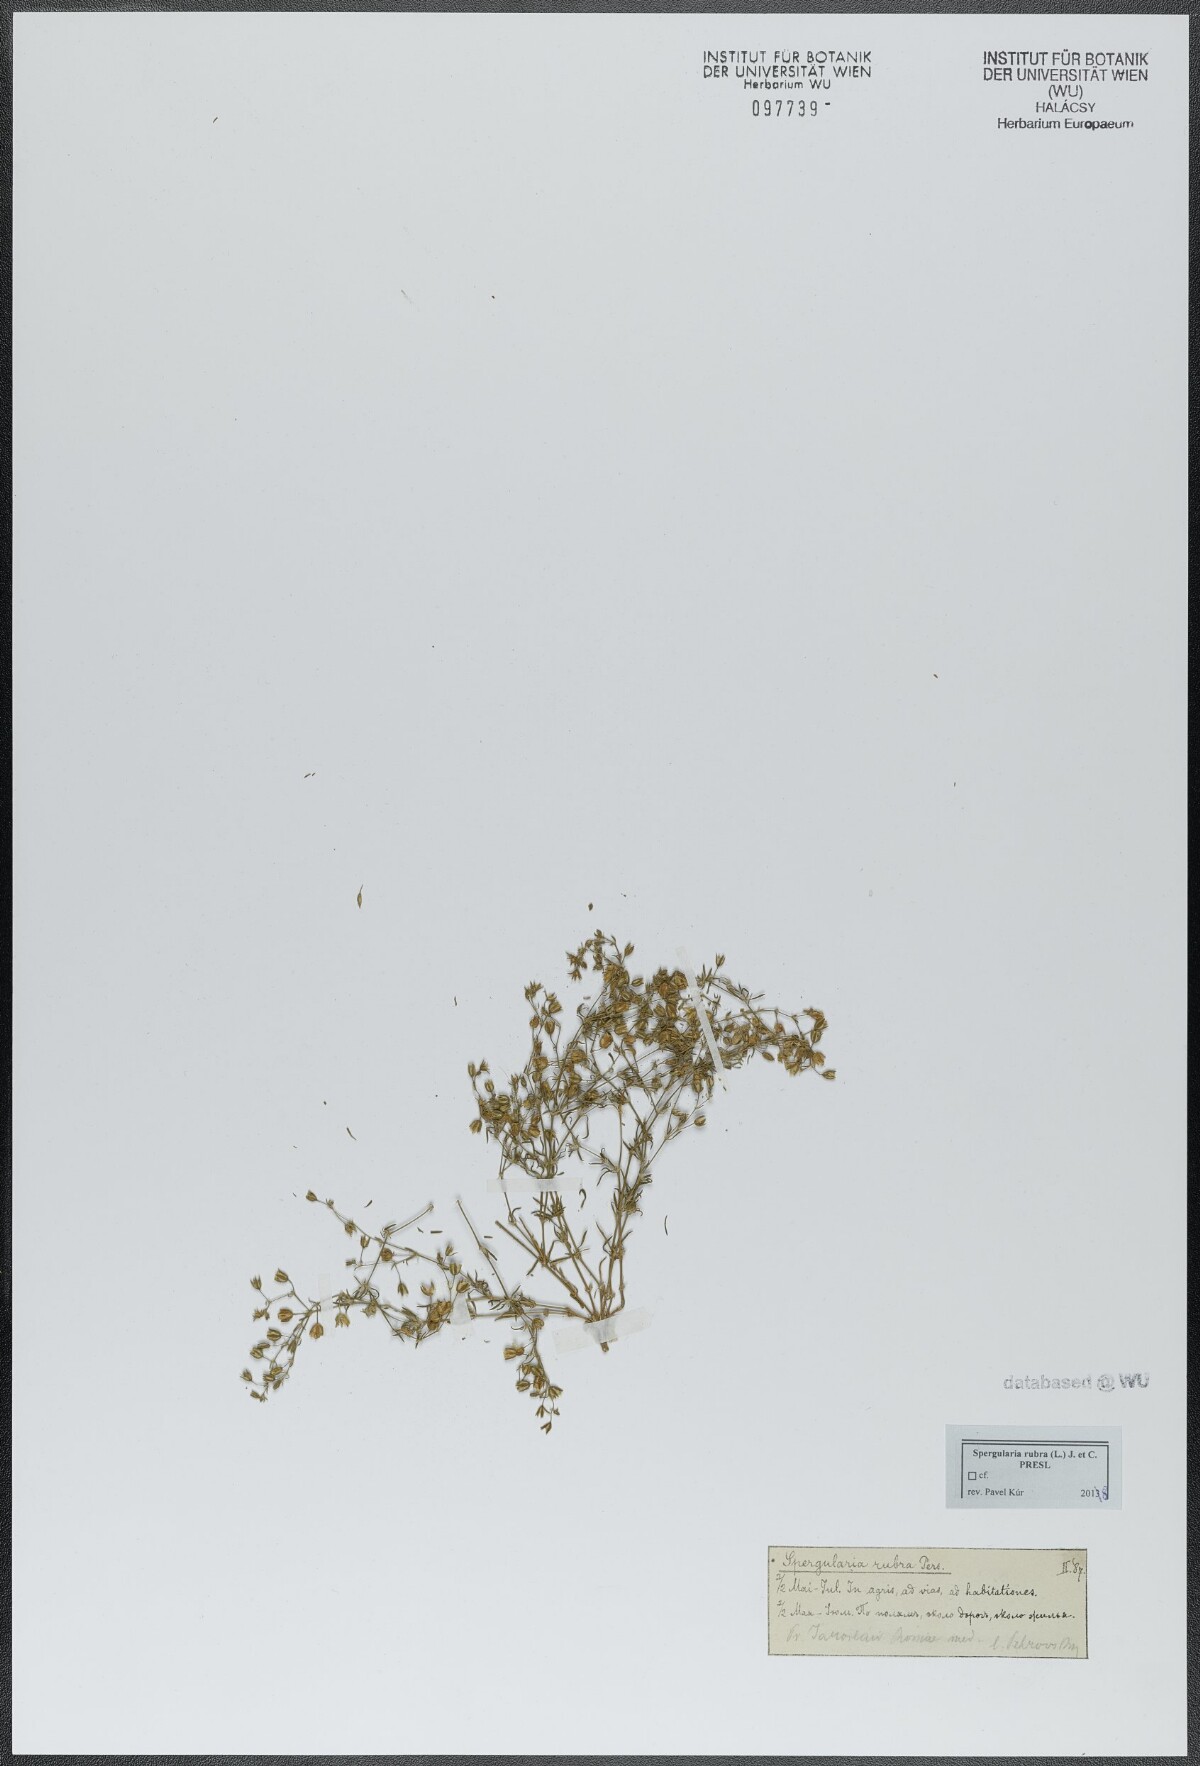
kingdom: Plantae
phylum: Tracheophyta
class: Magnoliopsida
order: Caryophyllales
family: Caryophyllaceae
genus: Spergularia
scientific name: Spergularia rubra
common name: Red sand-spurrey
